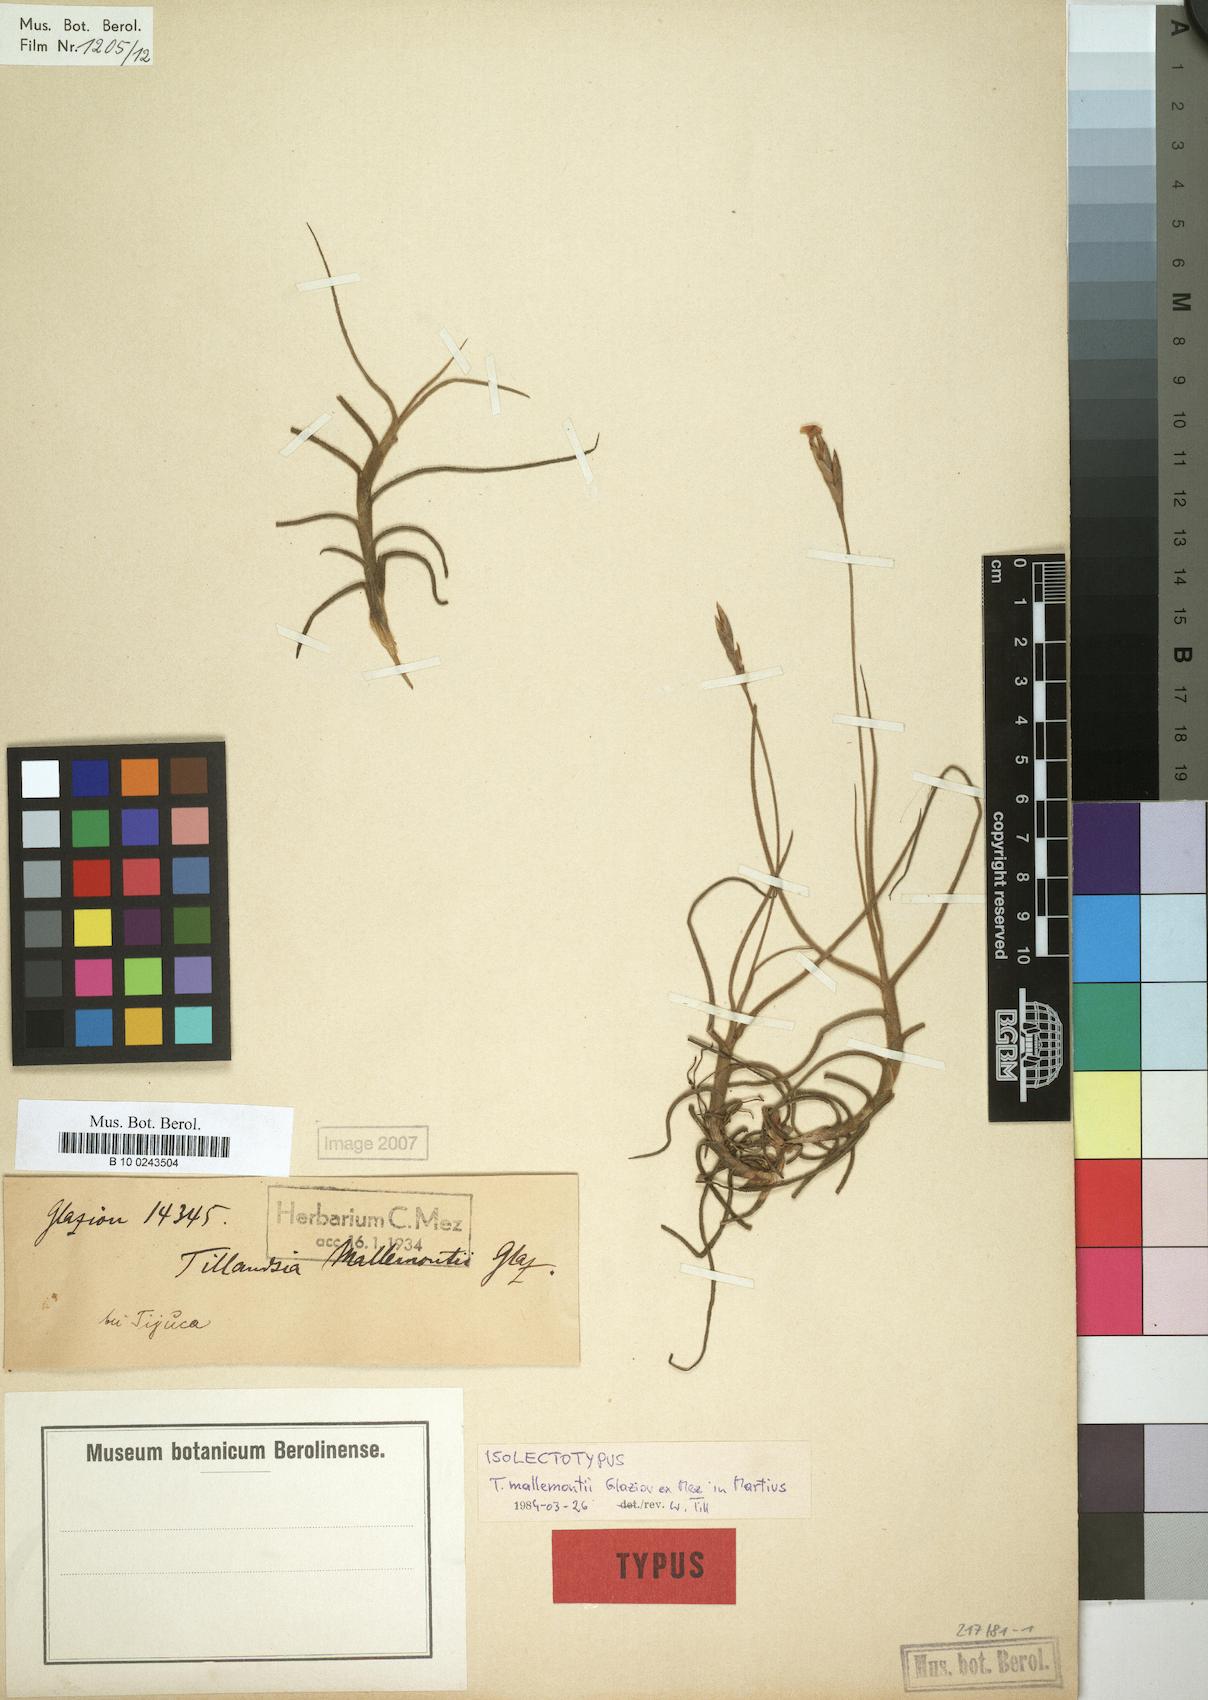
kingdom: Plantae
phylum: Tracheophyta
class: Liliopsida
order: Poales
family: Bromeliaceae
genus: Tillandsia
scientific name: Tillandsia mallemontii
